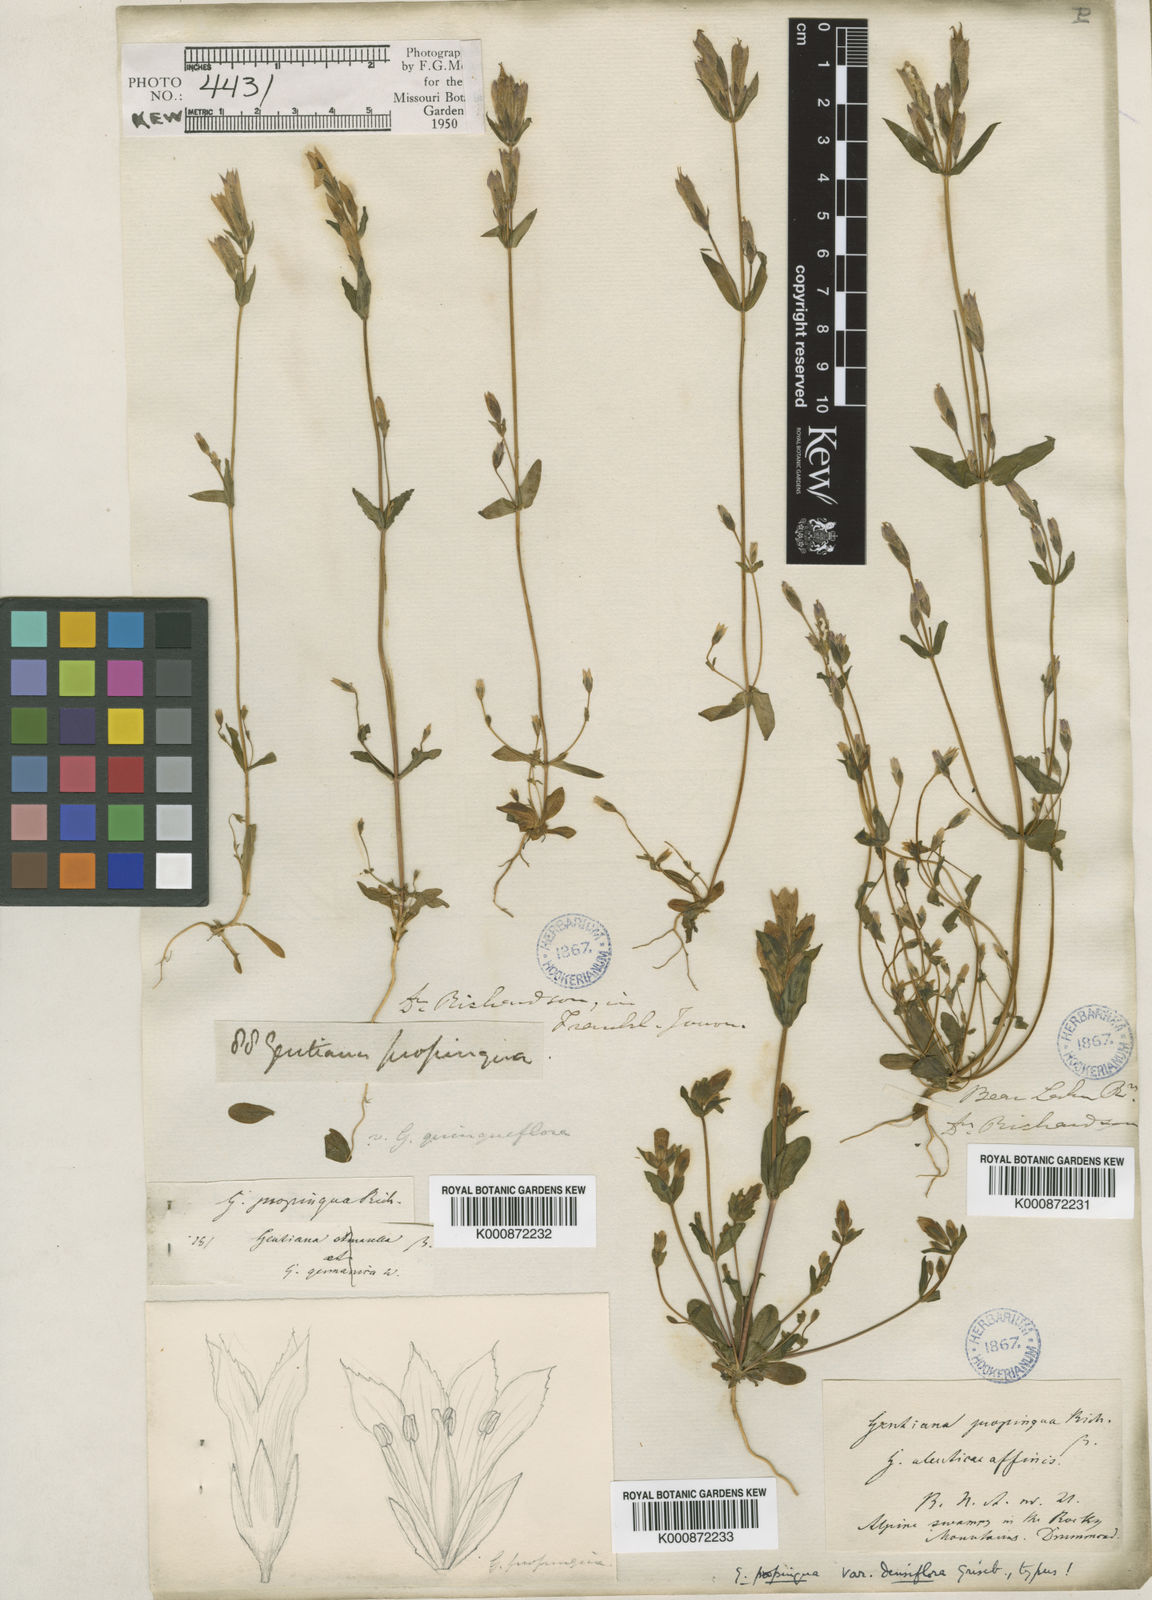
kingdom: Plantae
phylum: Tracheophyta
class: Magnoliopsida
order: Gentianales
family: Gentianaceae
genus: Gentianella
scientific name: Gentianella propinqua
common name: Four-parted dwarf-gentian
